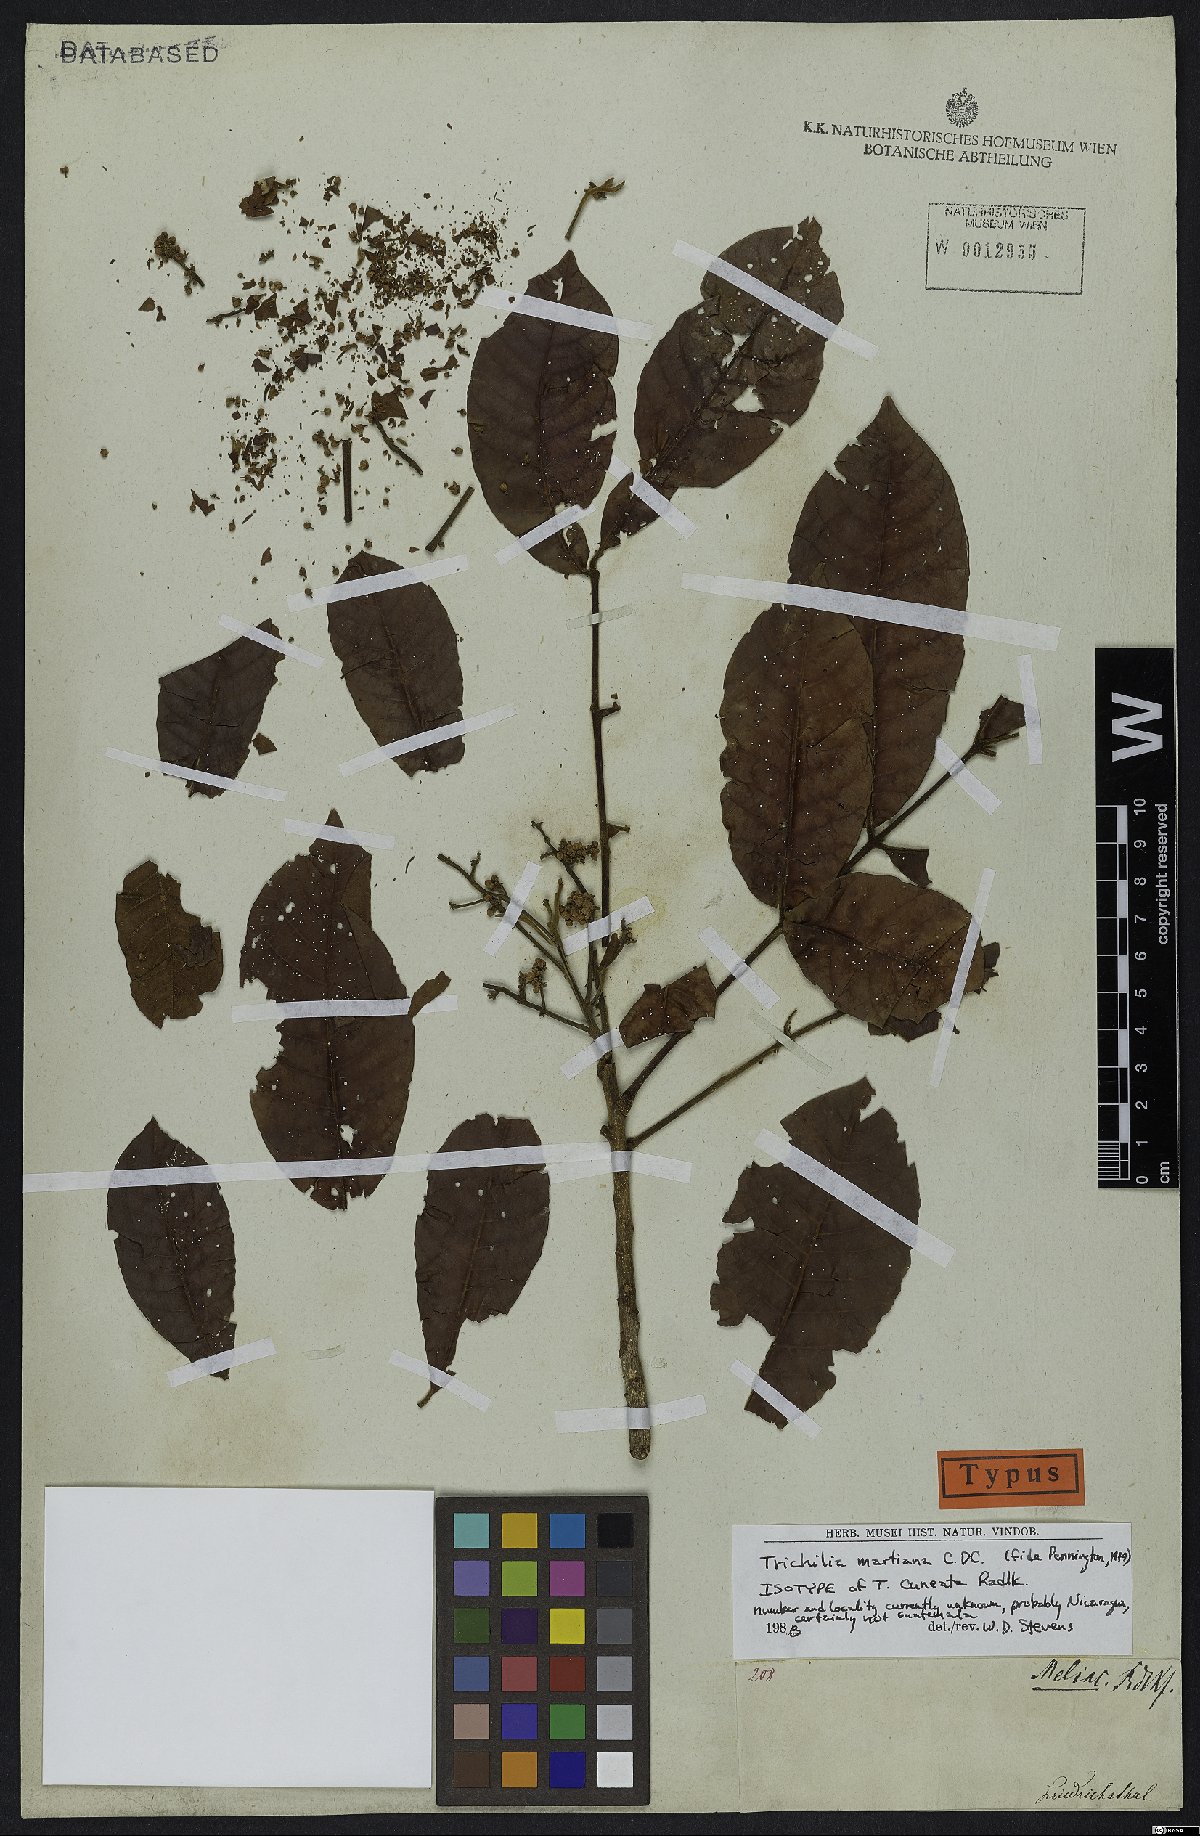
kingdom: Plantae
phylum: Tracheophyta
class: Magnoliopsida
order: Sapindales
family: Meliaceae
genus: Trichilia
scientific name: Trichilia martiana
